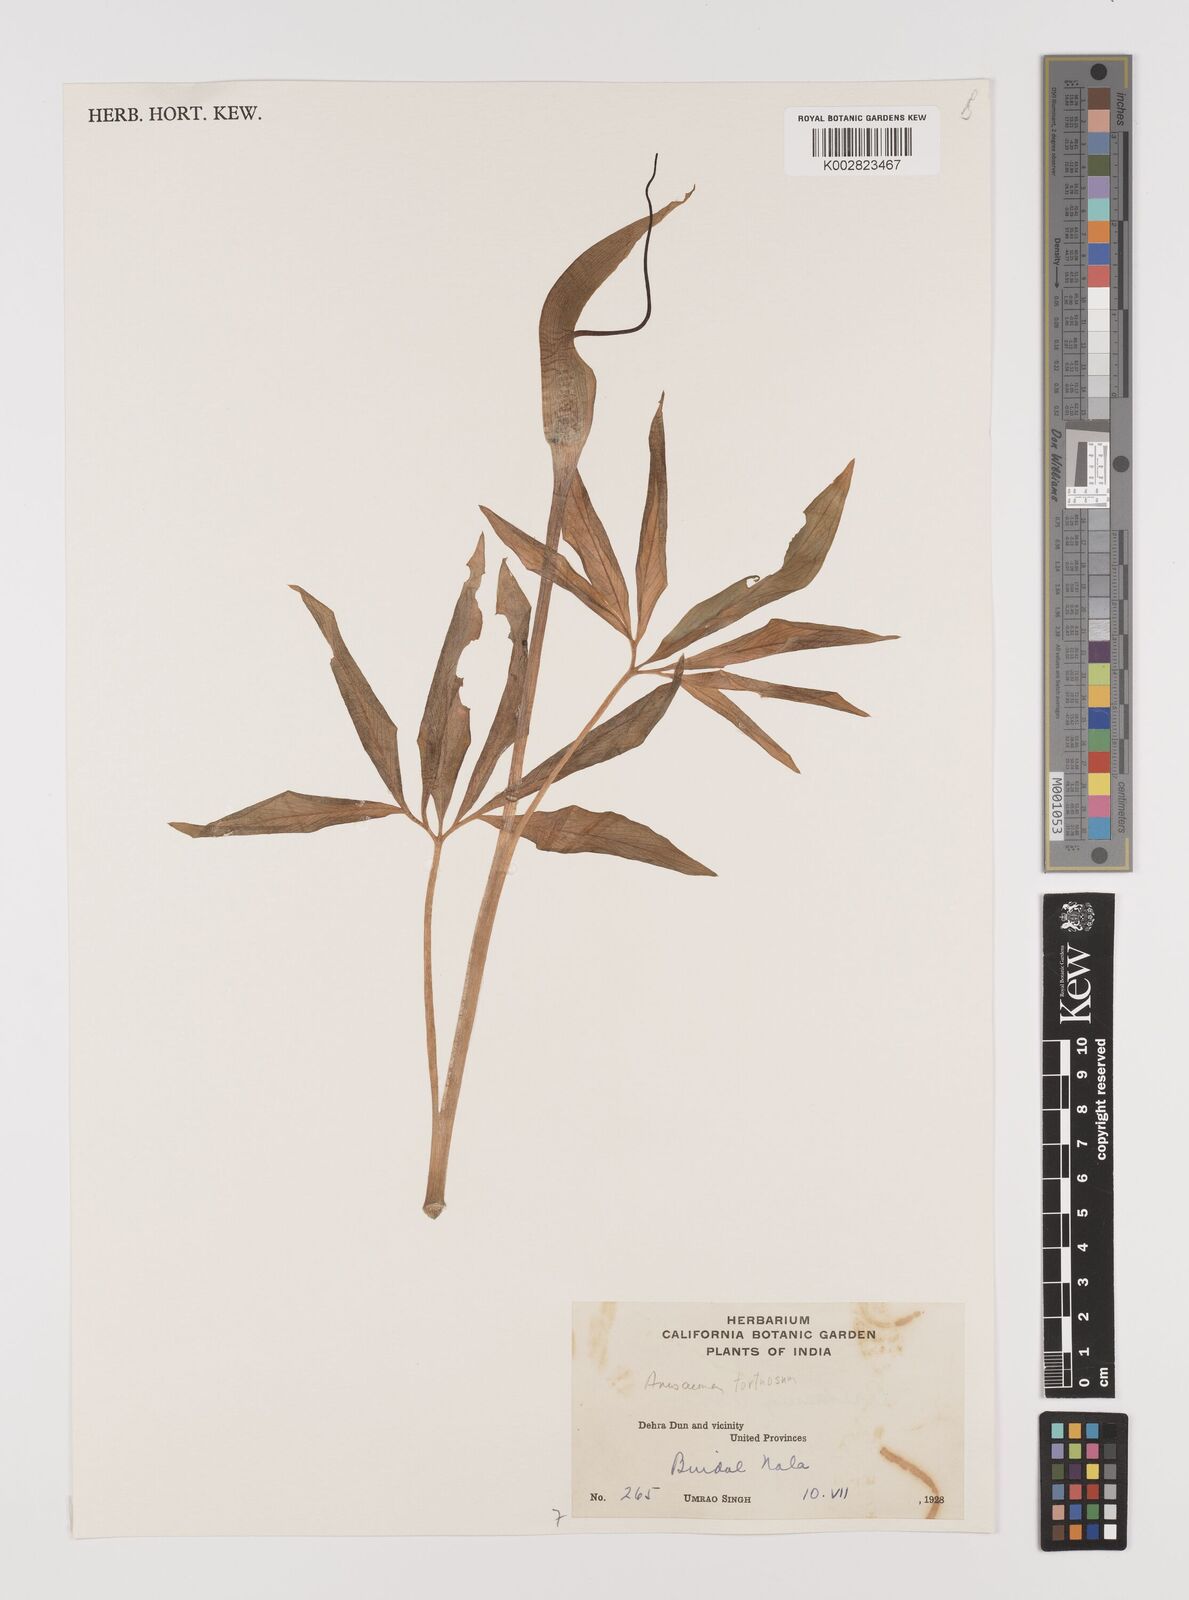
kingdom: Plantae
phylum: Tracheophyta
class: Liliopsida
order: Alismatales
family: Araceae
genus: Arisaema
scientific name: Arisaema
